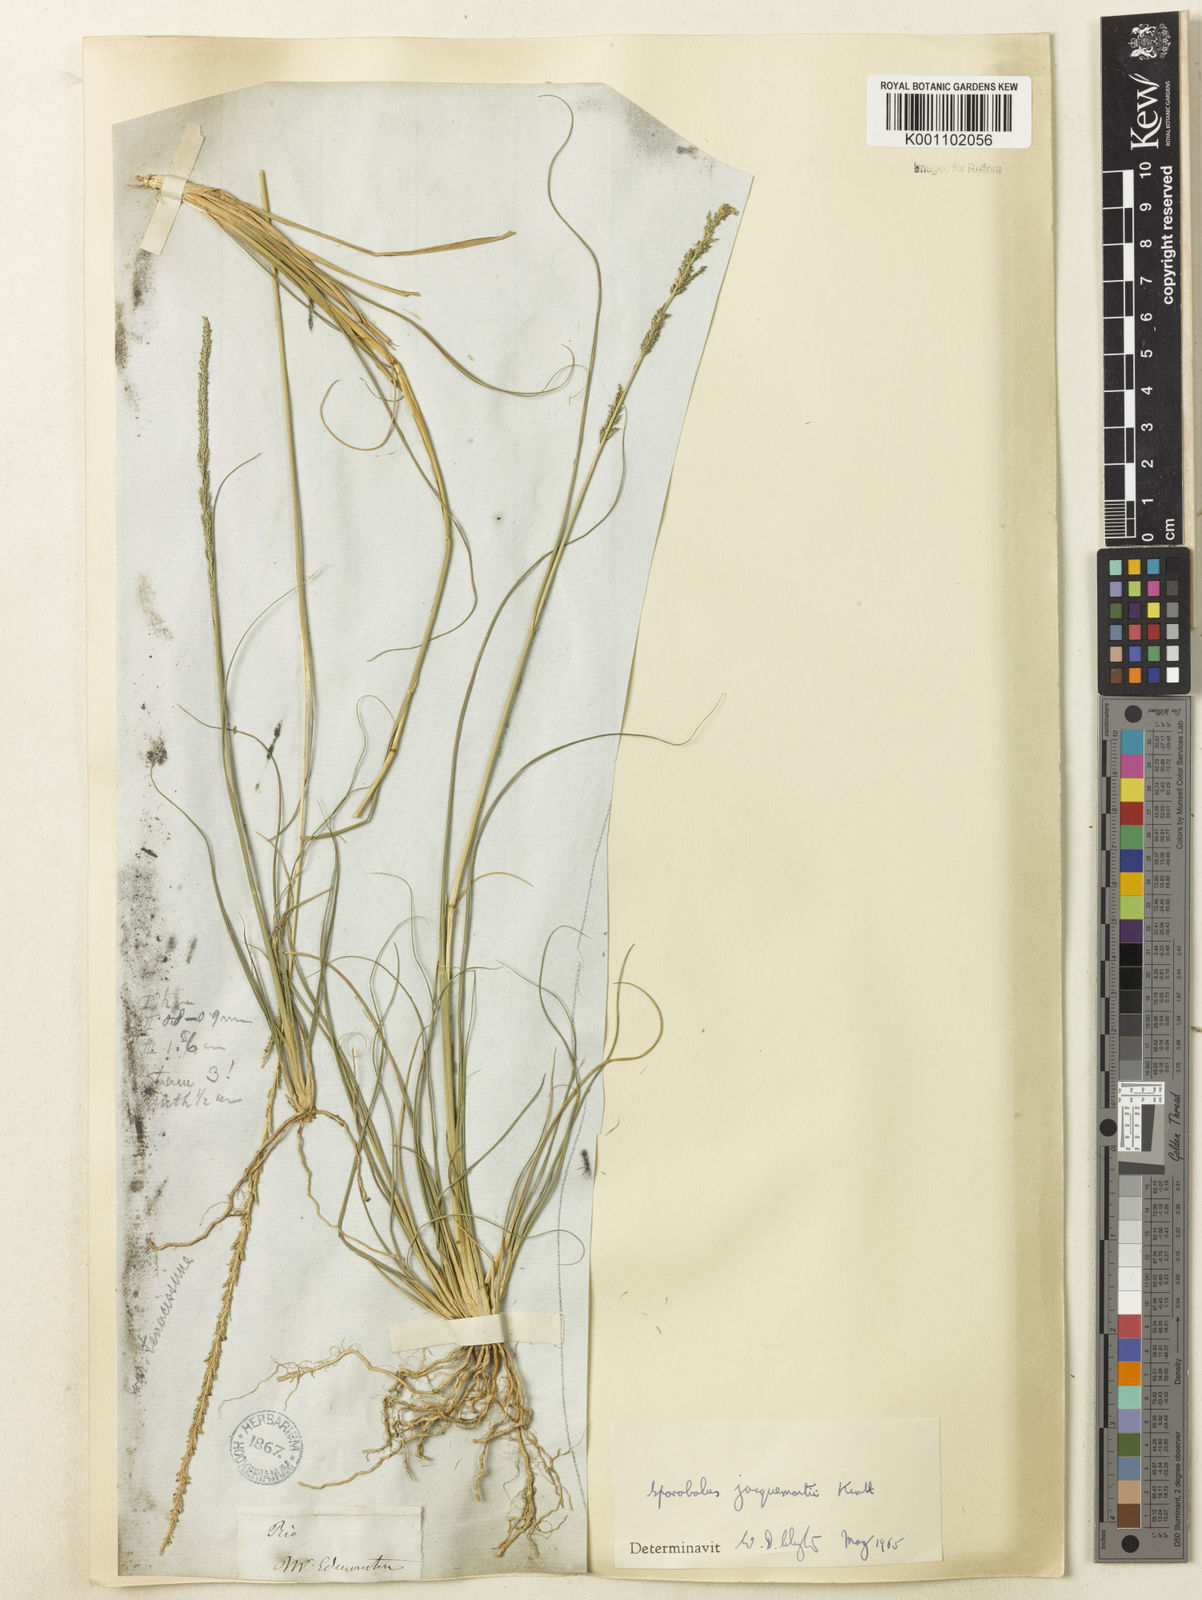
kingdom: Plantae
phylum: Tracheophyta
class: Liliopsida
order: Poales
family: Poaceae
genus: Sporobolus
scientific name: Sporobolus pyramidalis
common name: West indian dropseed
